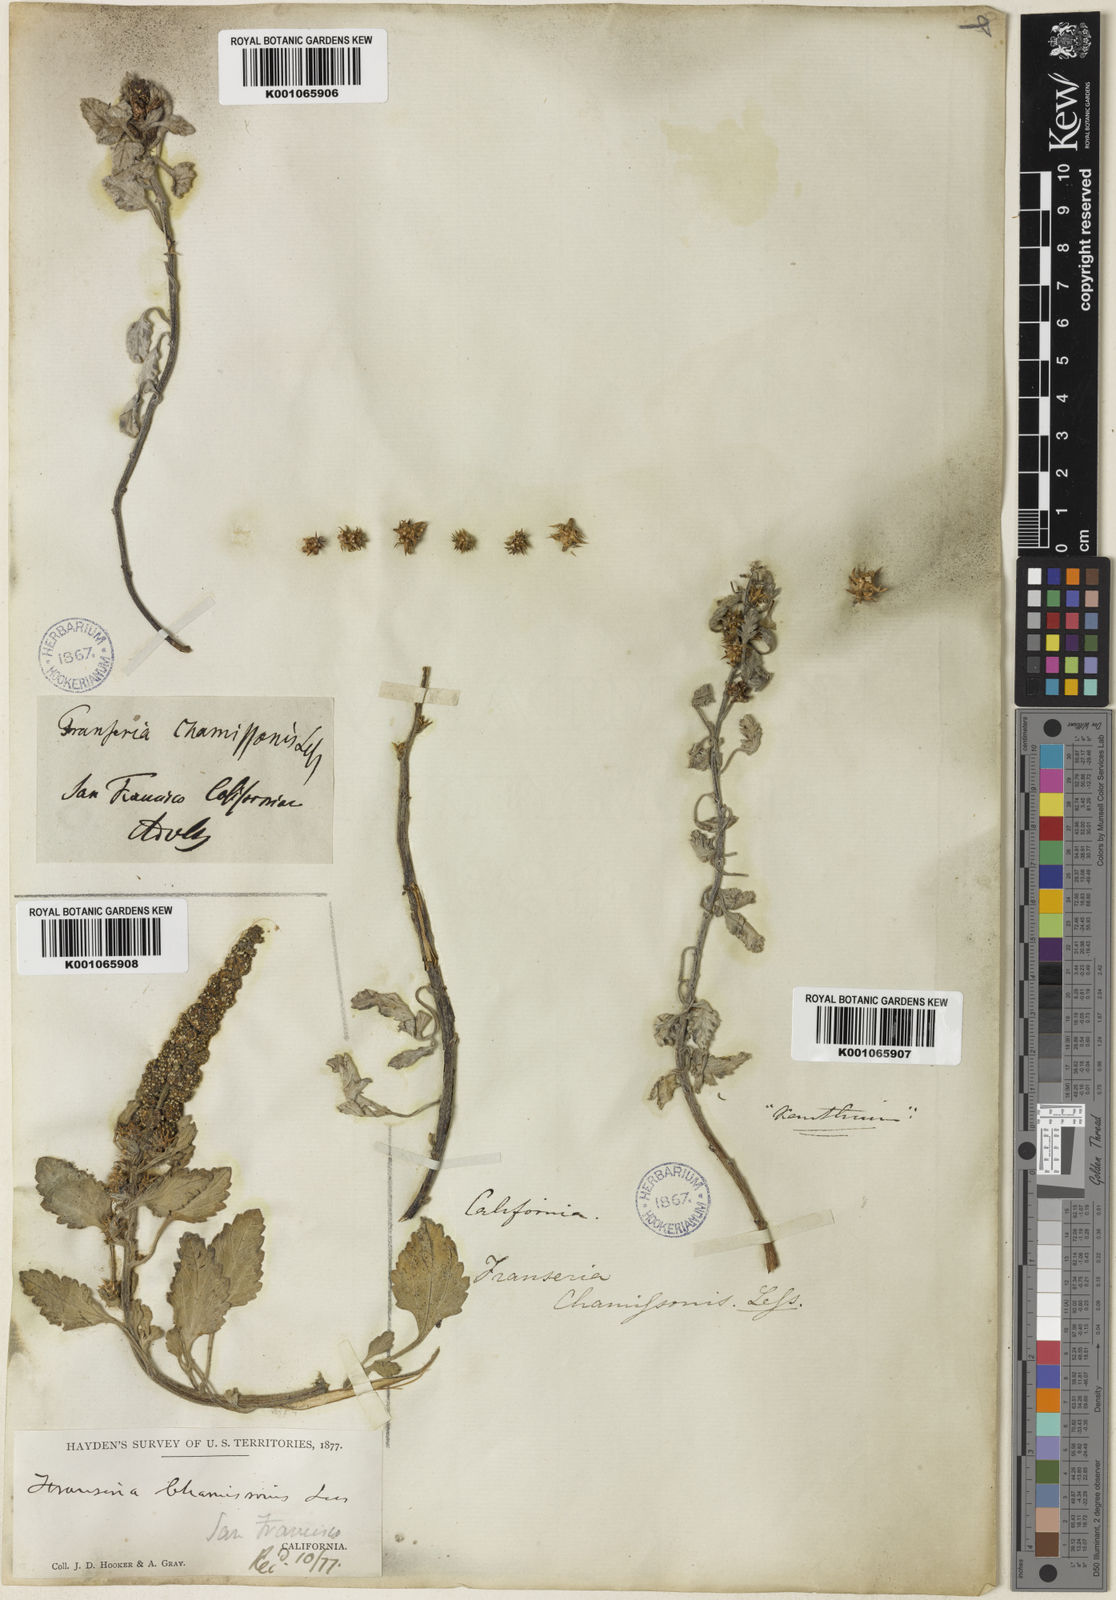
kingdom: Plantae
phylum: Tracheophyta
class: Magnoliopsida
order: Asterales
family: Asteraceae
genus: Ambrosia
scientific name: Ambrosia chamissonis
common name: Beachbur
